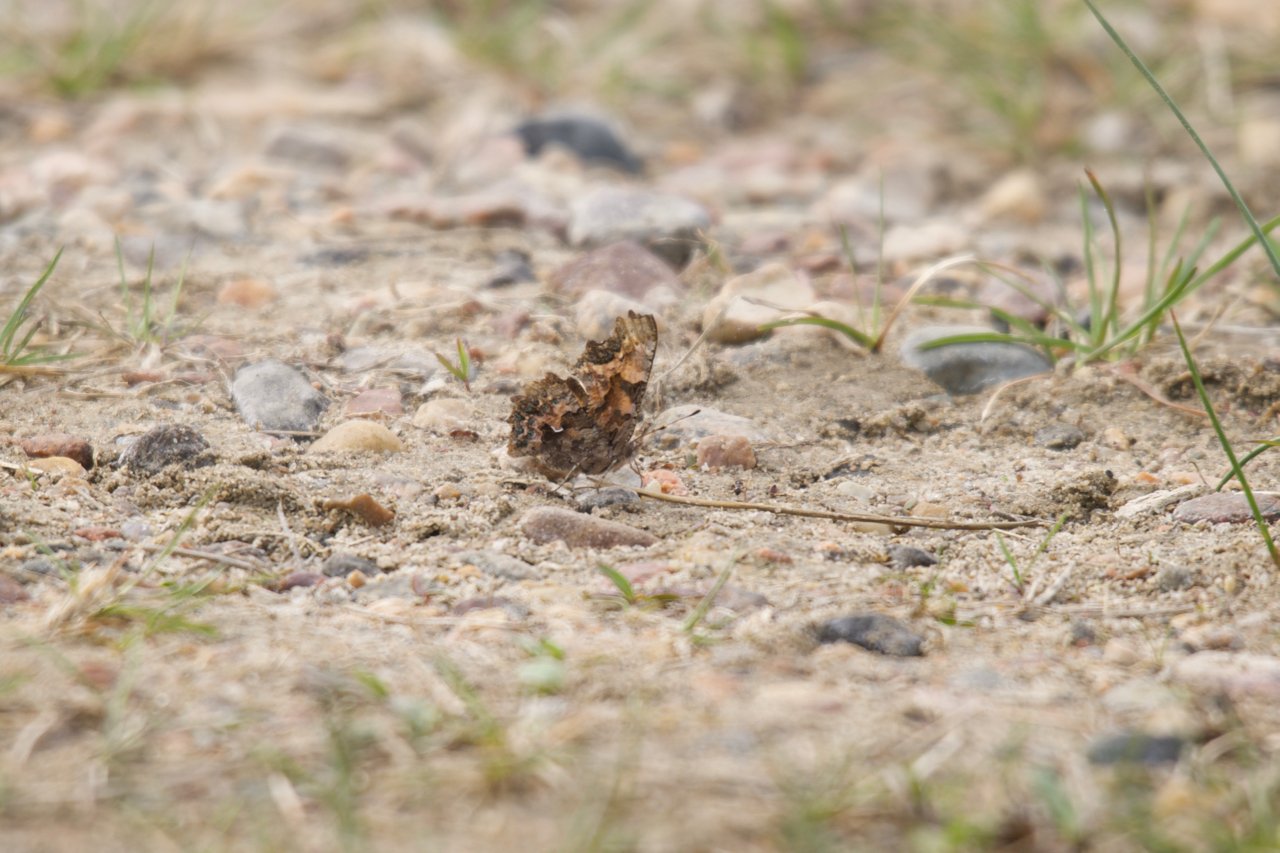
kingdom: Animalia
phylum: Arthropoda
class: Insecta
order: Lepidoptera
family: Nymphalidae
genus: Polygonia
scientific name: Polygonia faunus
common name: Green Comma
